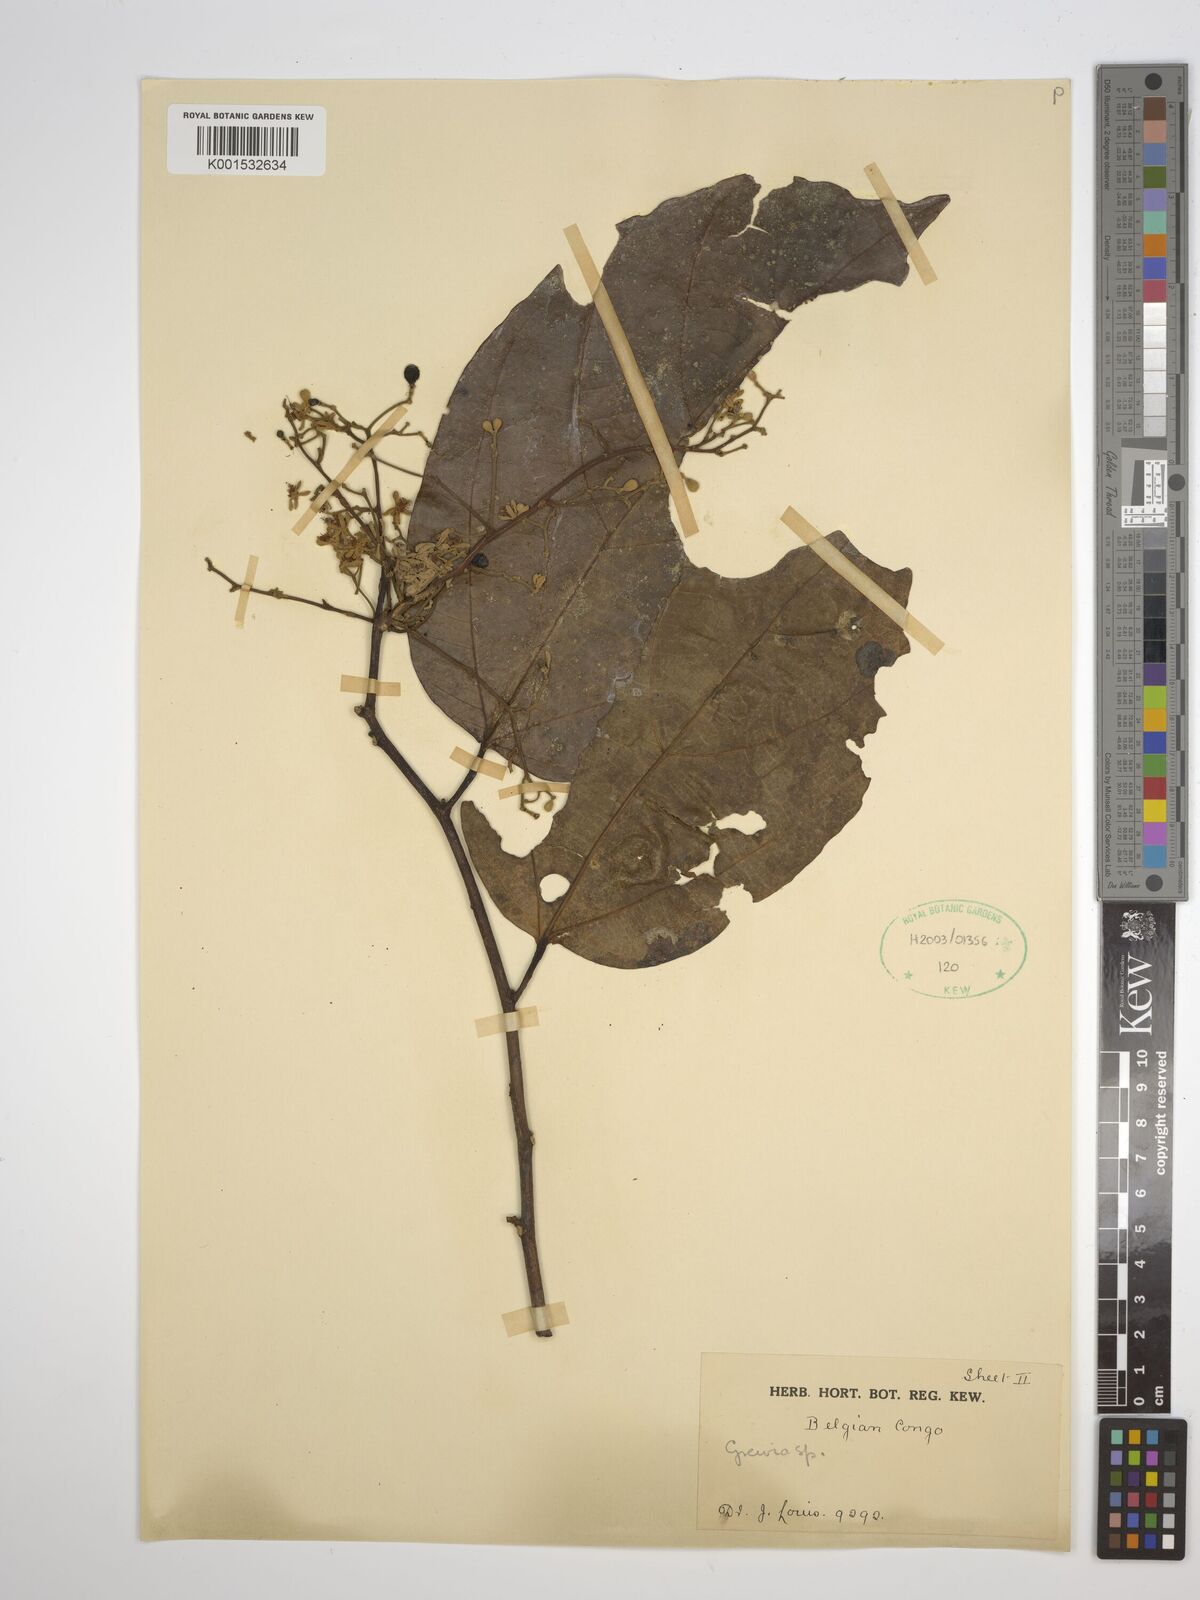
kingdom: Plantae
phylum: Tracheophyta
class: Magnoliopsida
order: Malvales
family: Malvaceae
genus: Grewia
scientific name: Grewia
